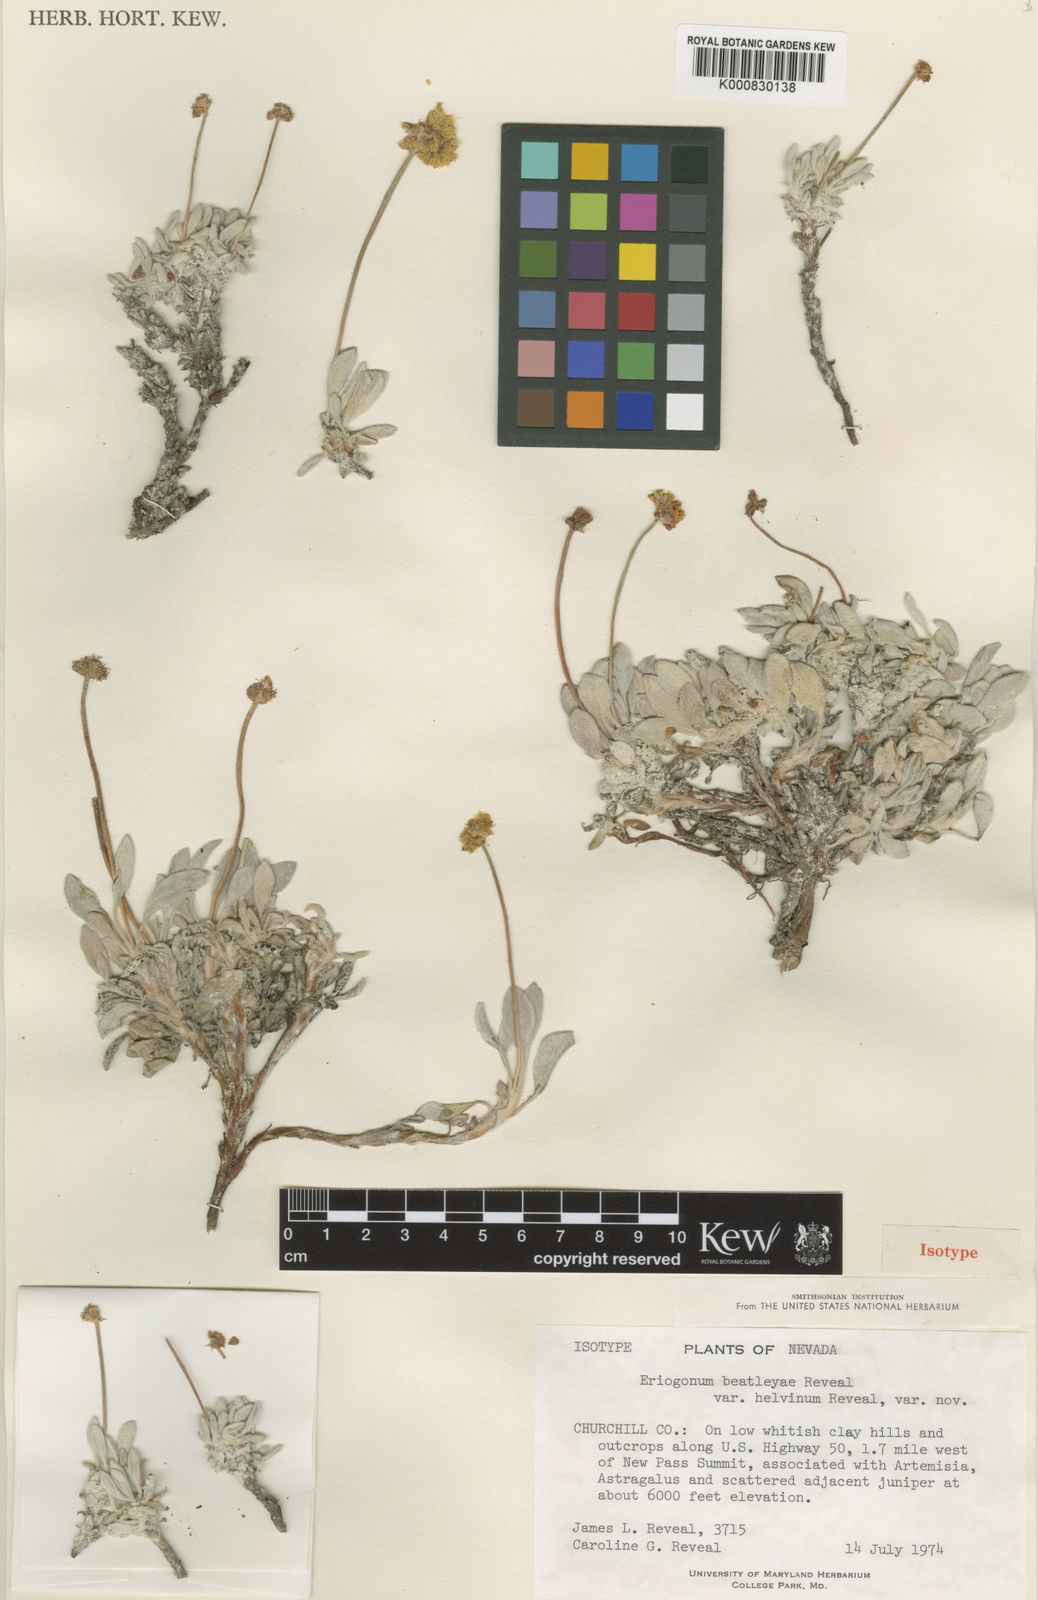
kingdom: Plantae
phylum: Tracheophyta
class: Magnoliopsida
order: Caryophyllales
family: Polygonaceae
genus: Eriogonum
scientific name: Eriogonum rosense
